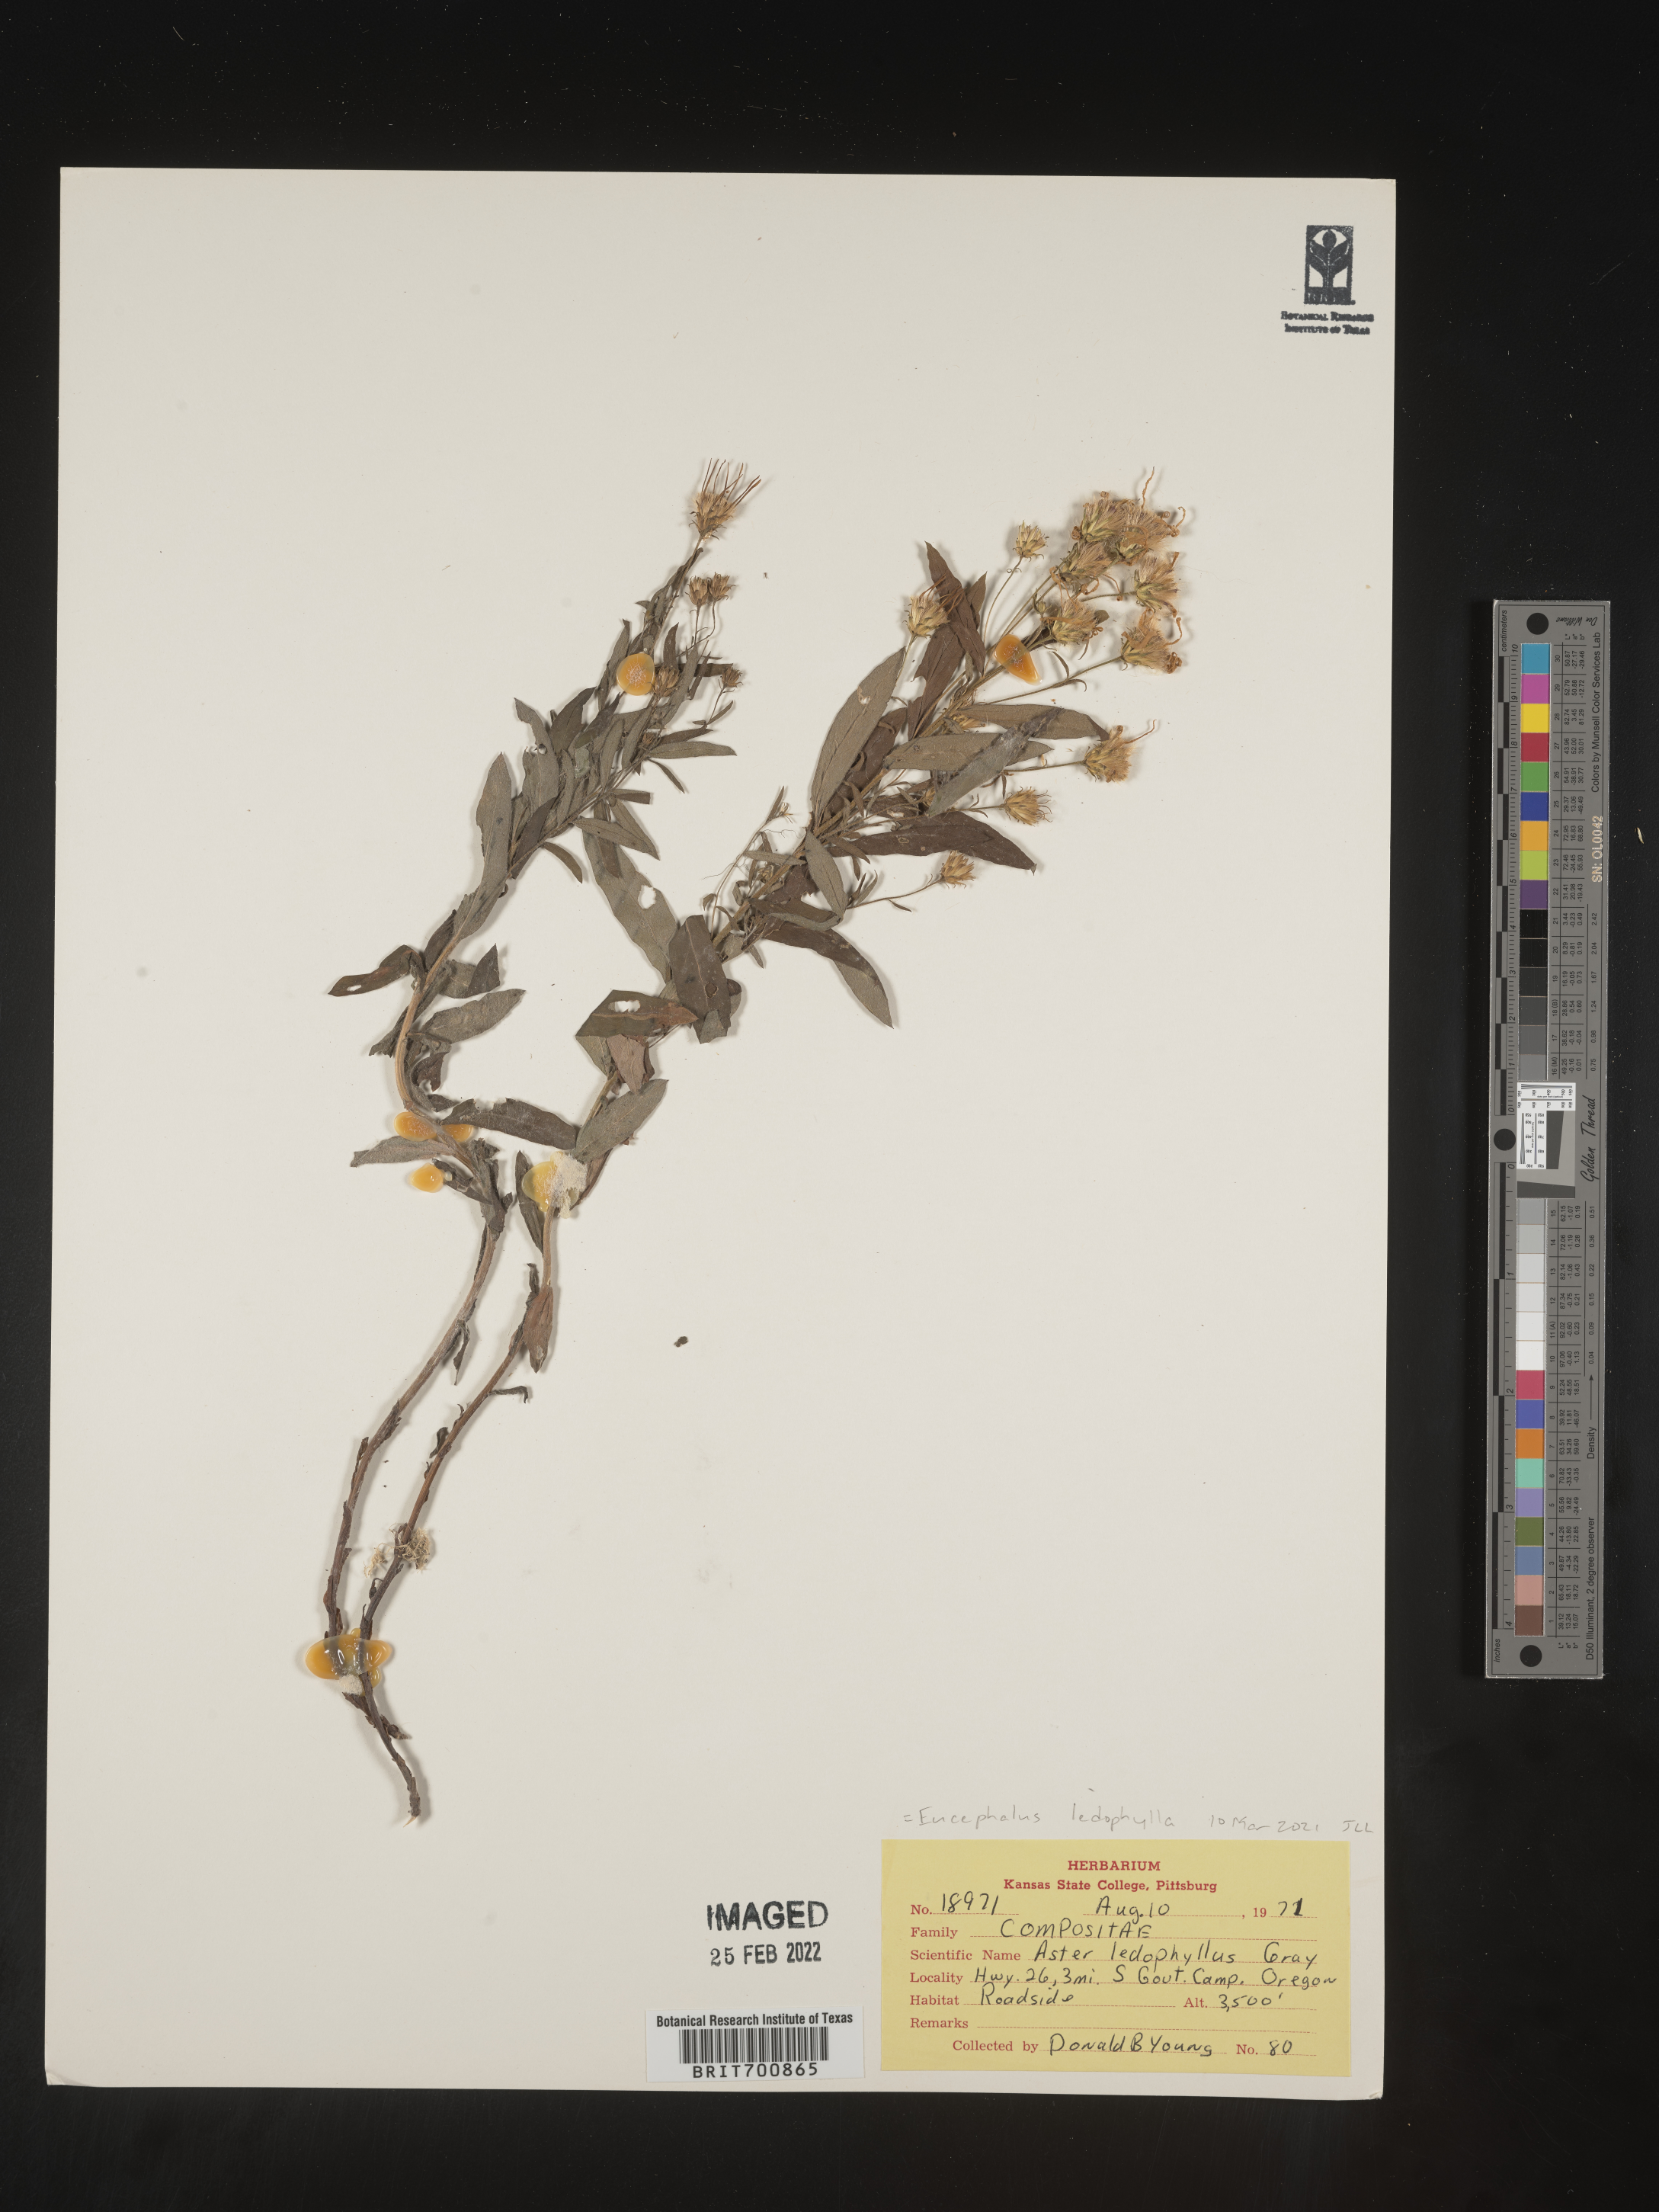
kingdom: Plantae
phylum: Tracheophyta
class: Magnoliopsida
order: Asterales
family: Asteraceae
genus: Eucephalus
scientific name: Eucephalus ledophyllus
